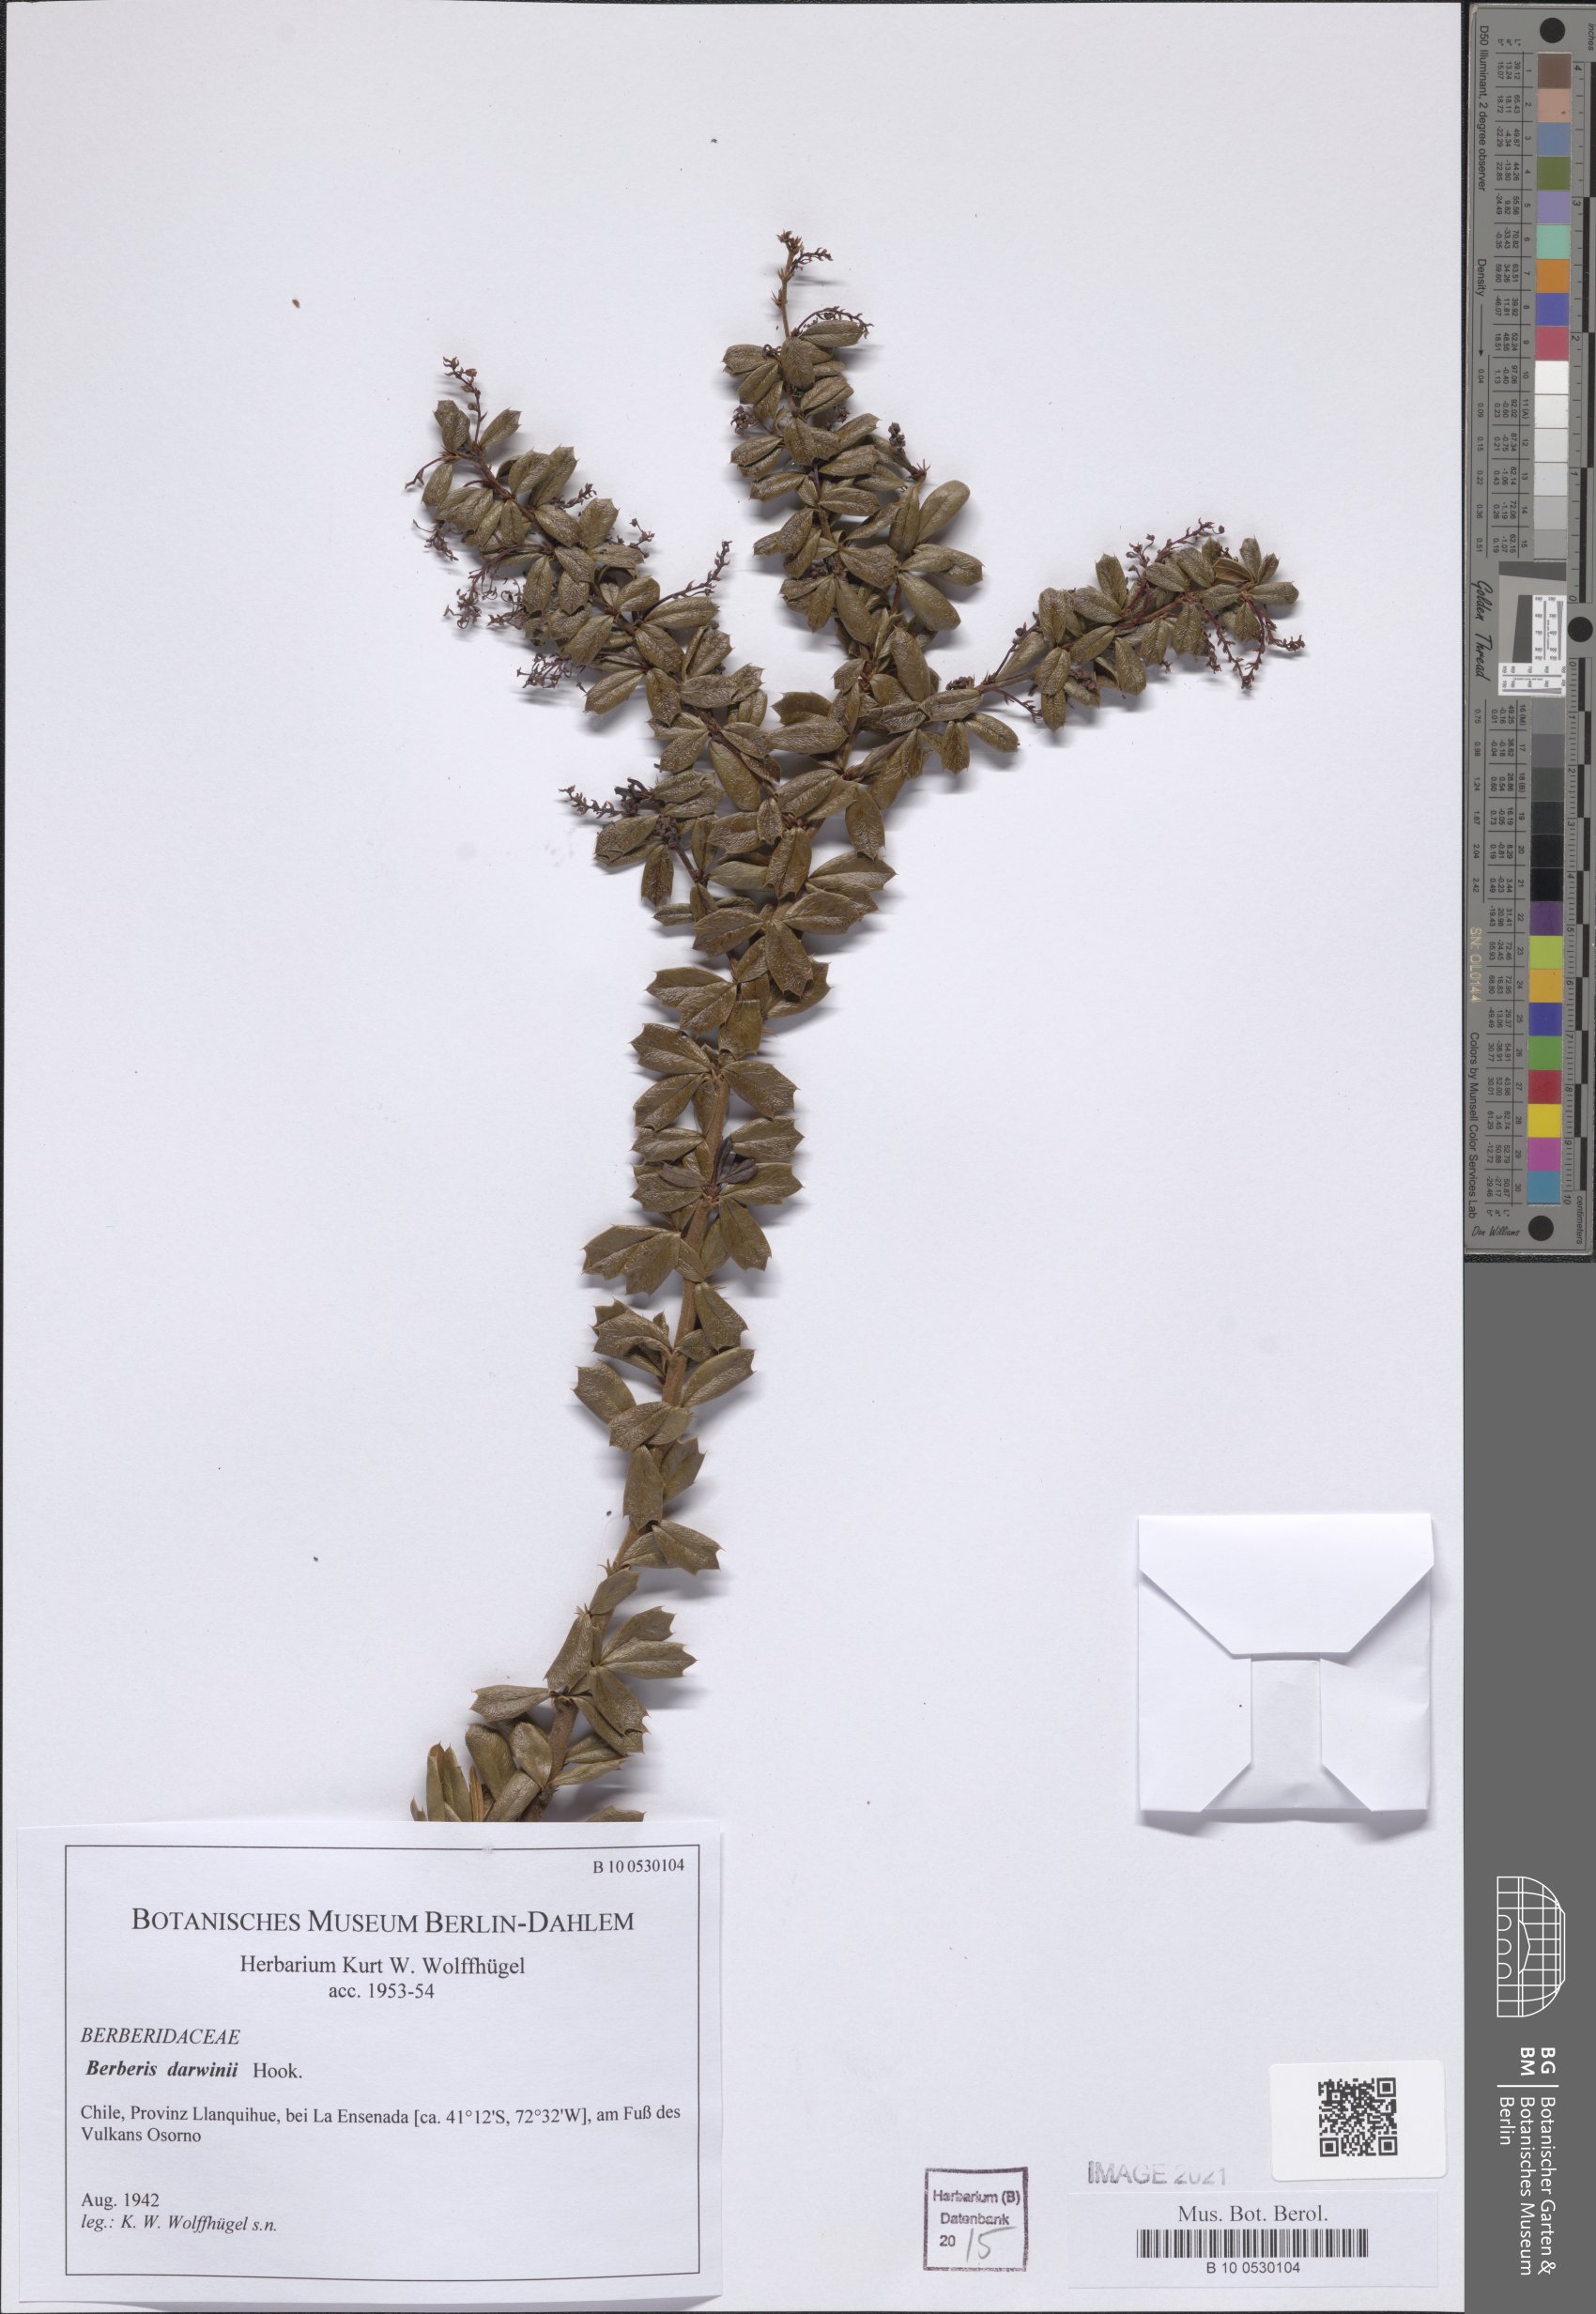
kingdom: Plantae
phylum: Tracheophyta
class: Magnoliopsida
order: Ranunculales
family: Berberidaceae
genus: Berberis
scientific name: Berberis darwinii
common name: Darwin's barberry
